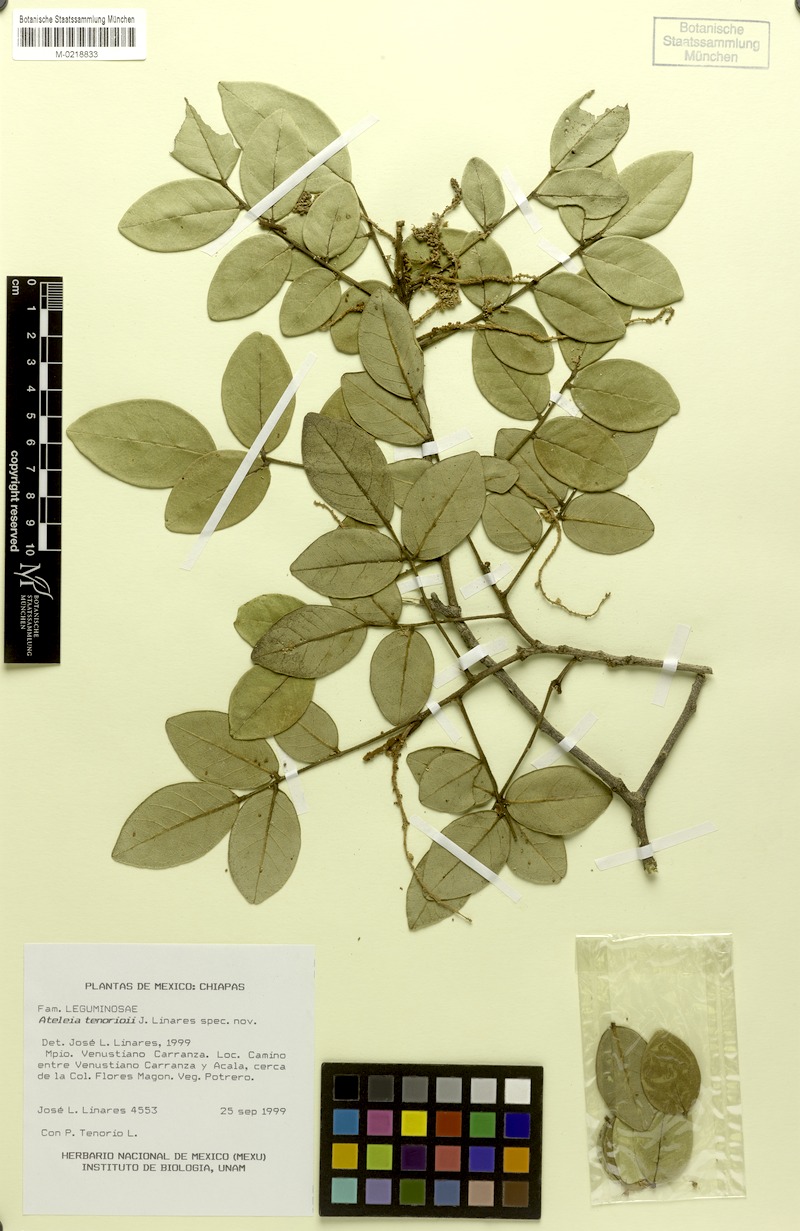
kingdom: Plantae
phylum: Tracheophyta
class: Magnoliopsida
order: Fabales
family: Fabaceae
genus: Ateleia
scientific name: Ateleia tenorioi
